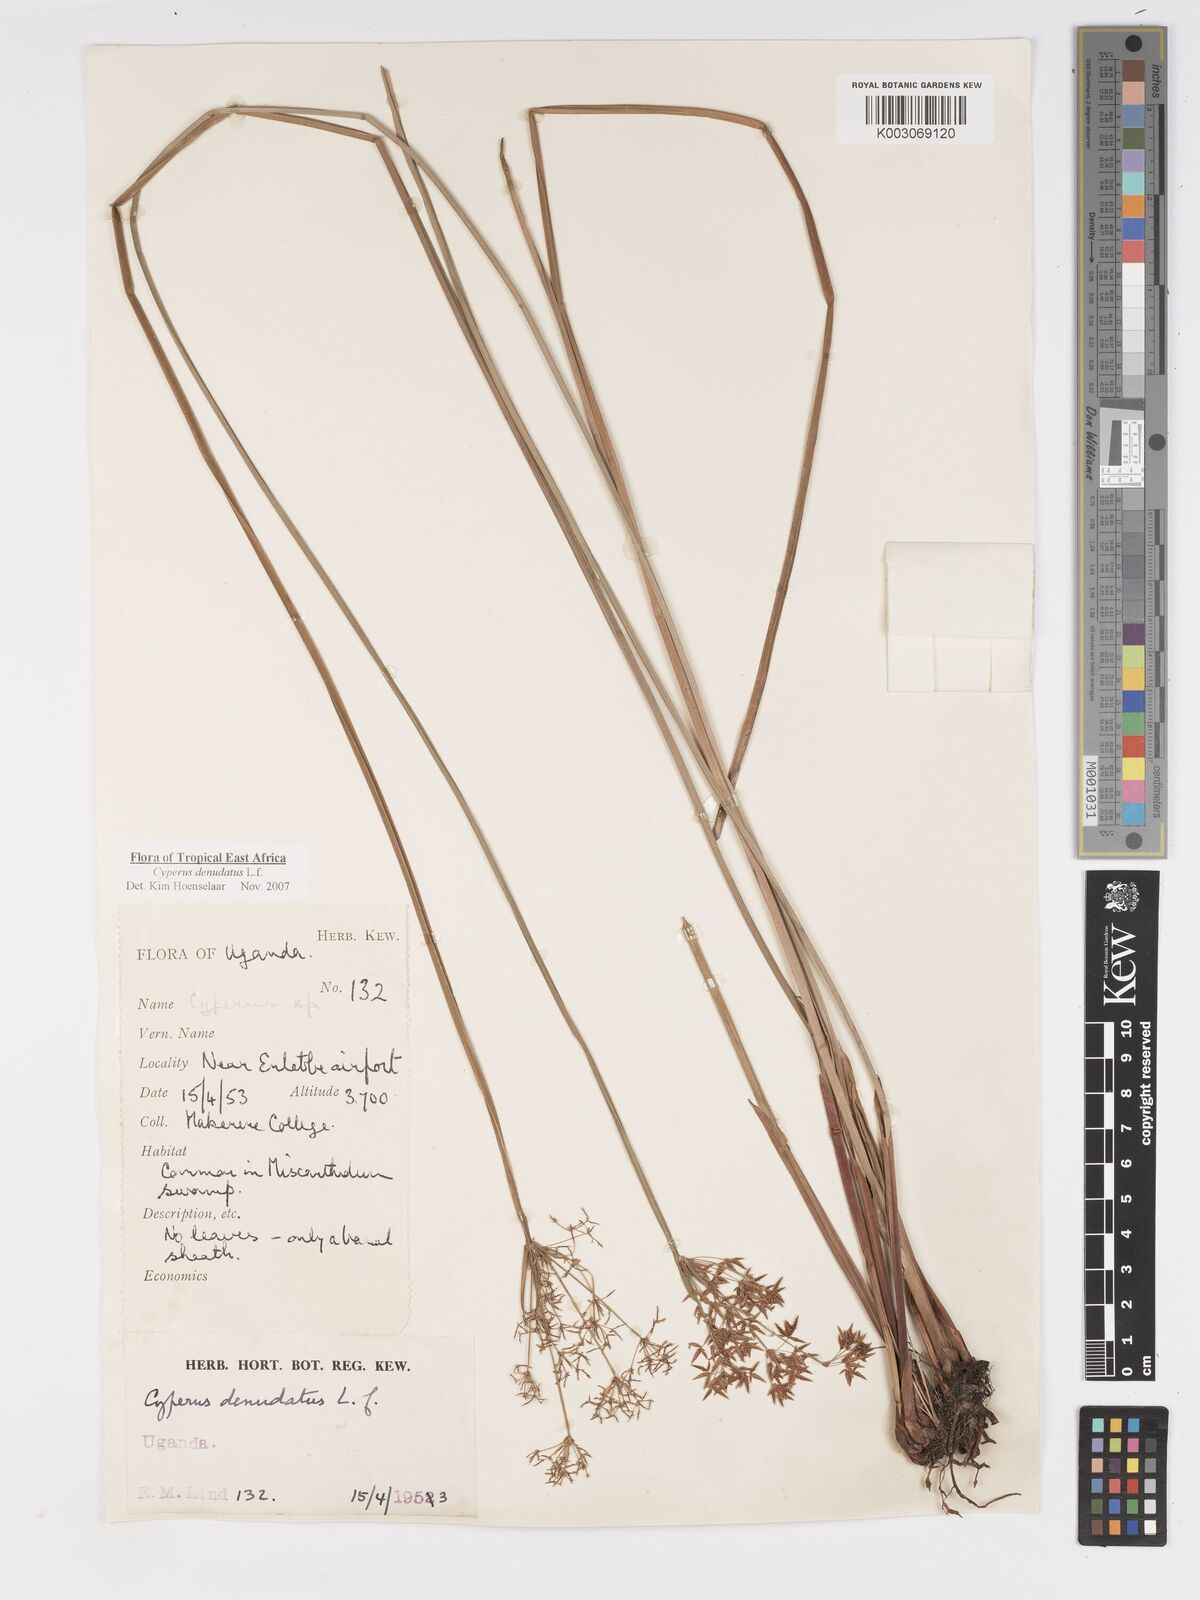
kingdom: Plantae
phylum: Tracheophyta
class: Liliopsida
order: Poales
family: Cyperaceae
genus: Cyperus
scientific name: Cyperus platycaulis
